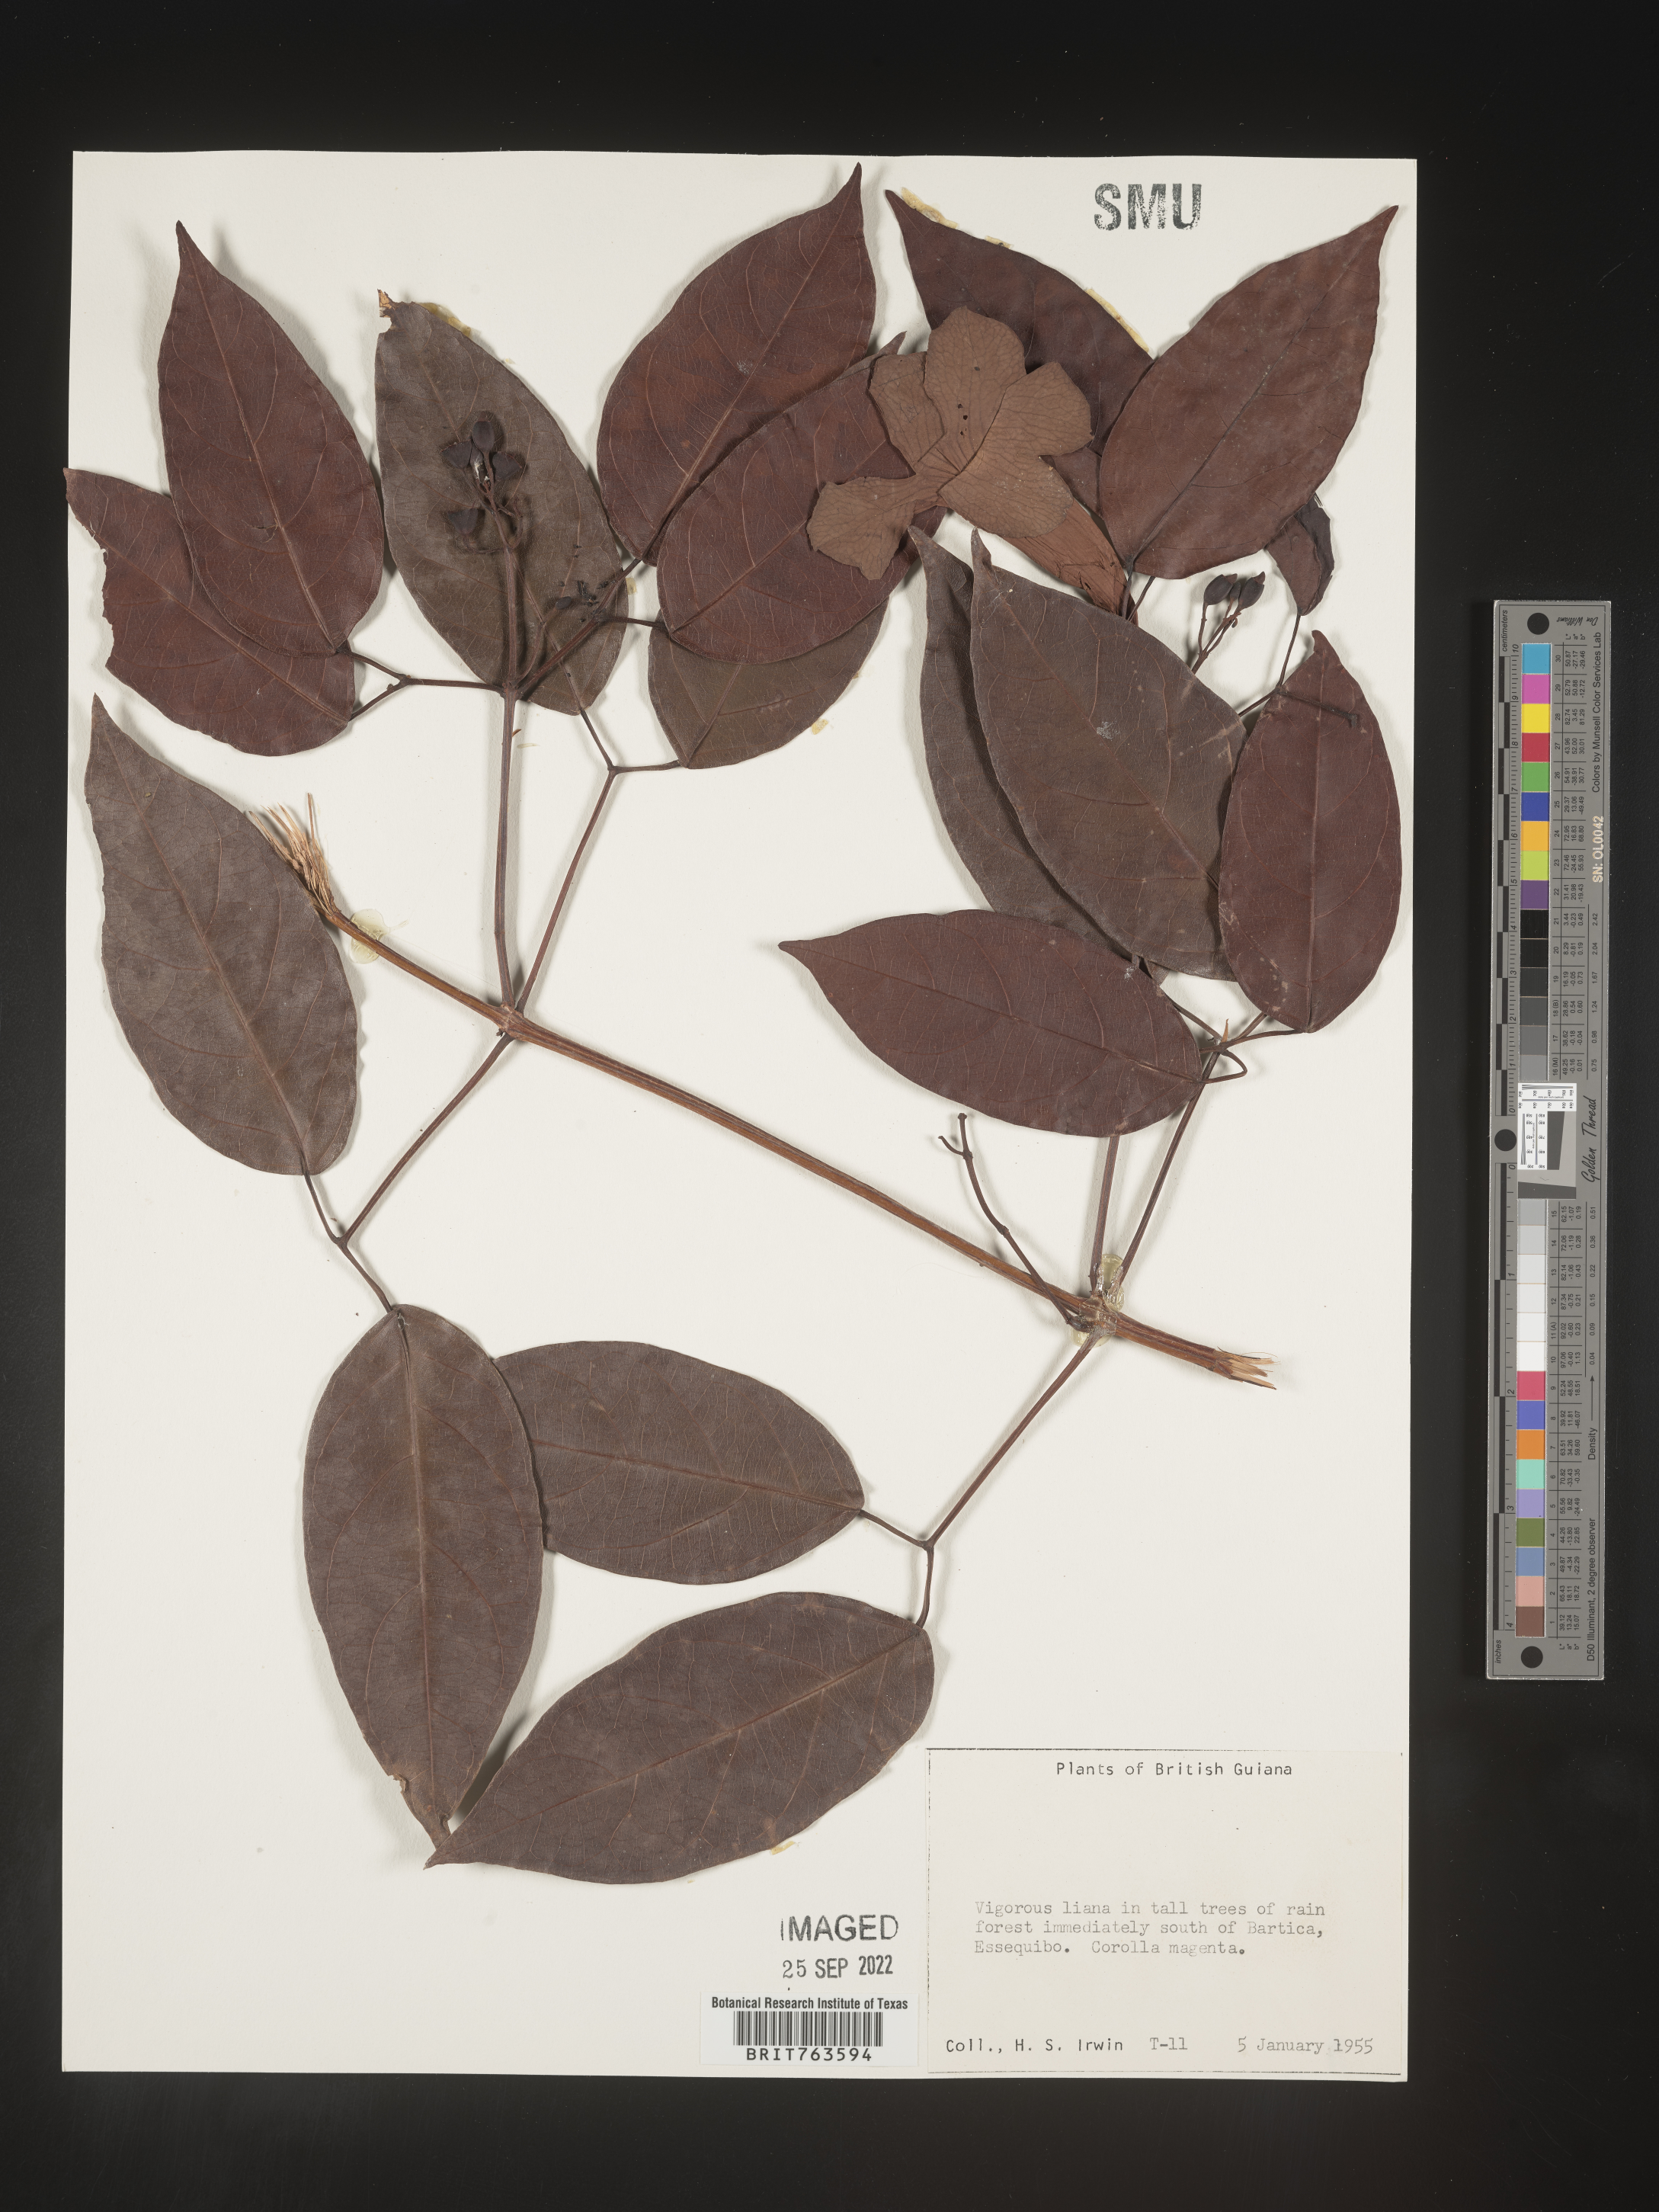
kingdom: Plantae
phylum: Tracheophyta
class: Magnoliopsida
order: Lamiales
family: Bignoniaceae
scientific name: Bignoniaceae
